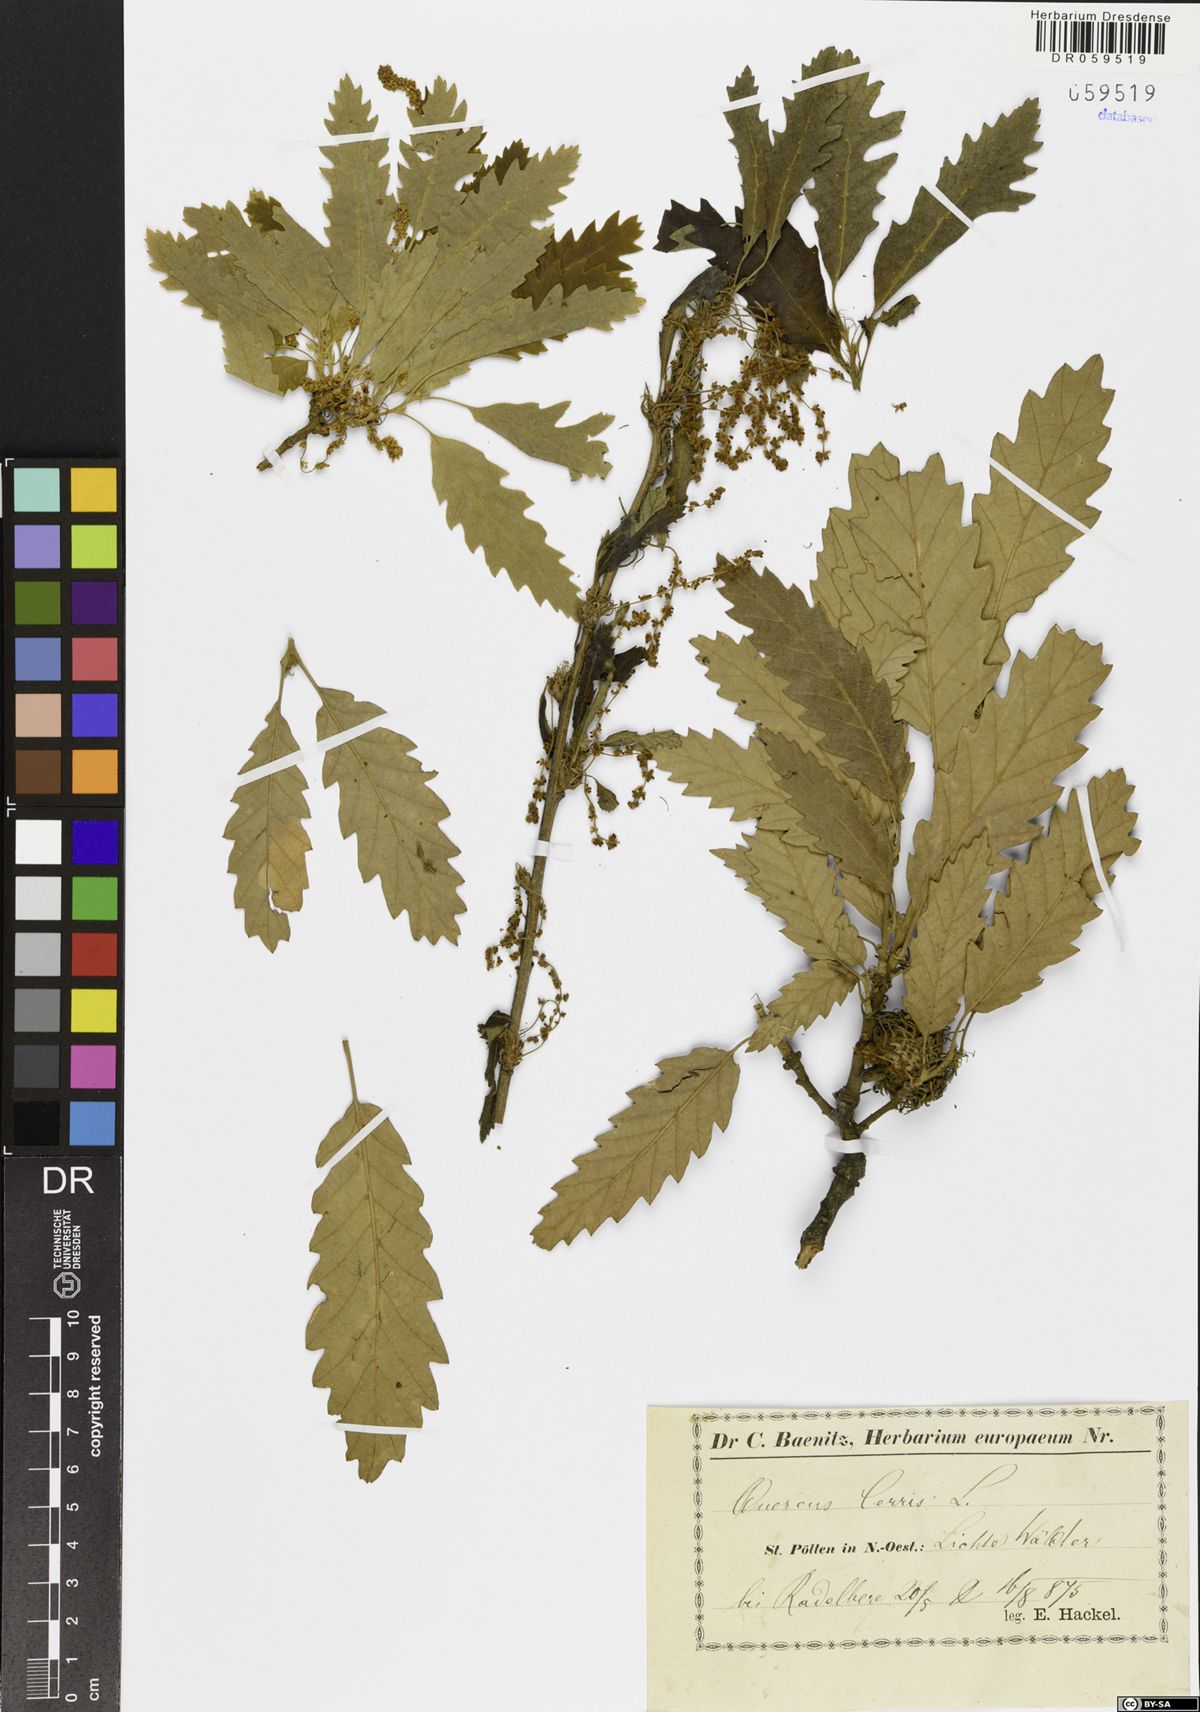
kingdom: Plantae
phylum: Tracheophyta
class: Magnoliopsida
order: Fagales
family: Fagaceae
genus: Quercus
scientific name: Quercus cerris
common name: Turkey oak
